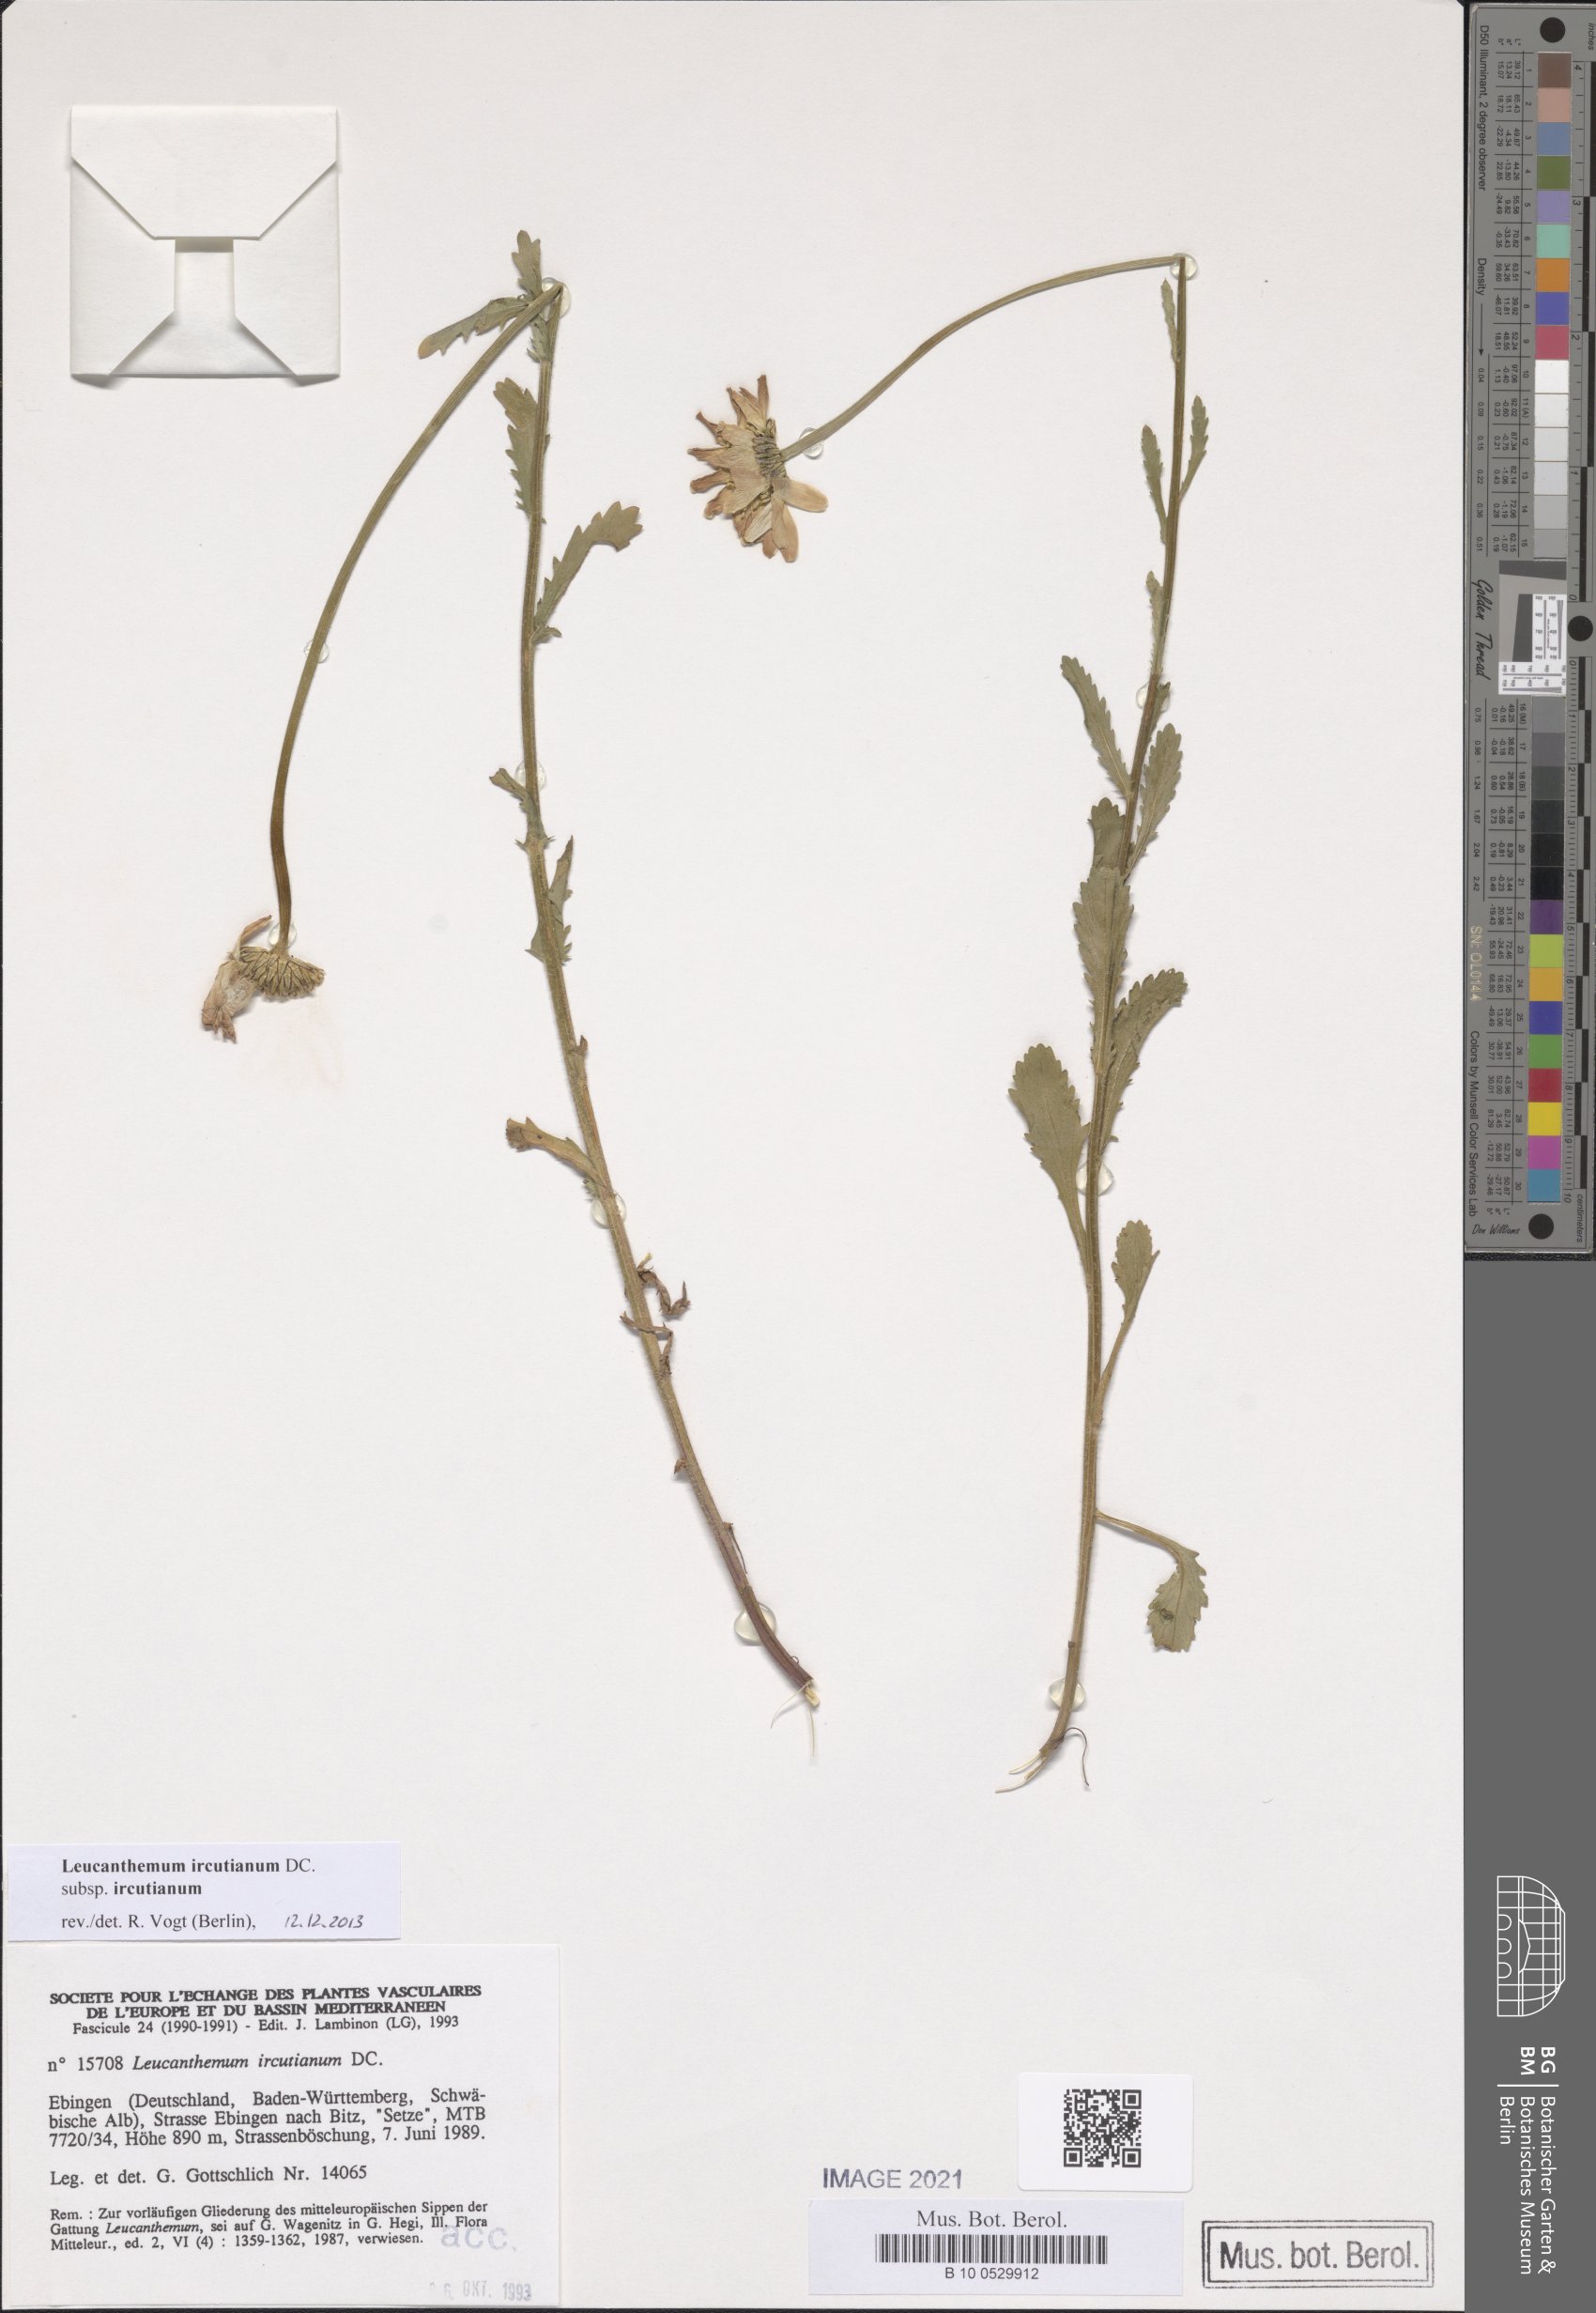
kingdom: Plantae
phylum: Tracheophyta
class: Magnoliopsida
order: Asterales
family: Asteraceae
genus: Leucanthemum
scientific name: Leucanthemum ircutianum
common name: Daisy
